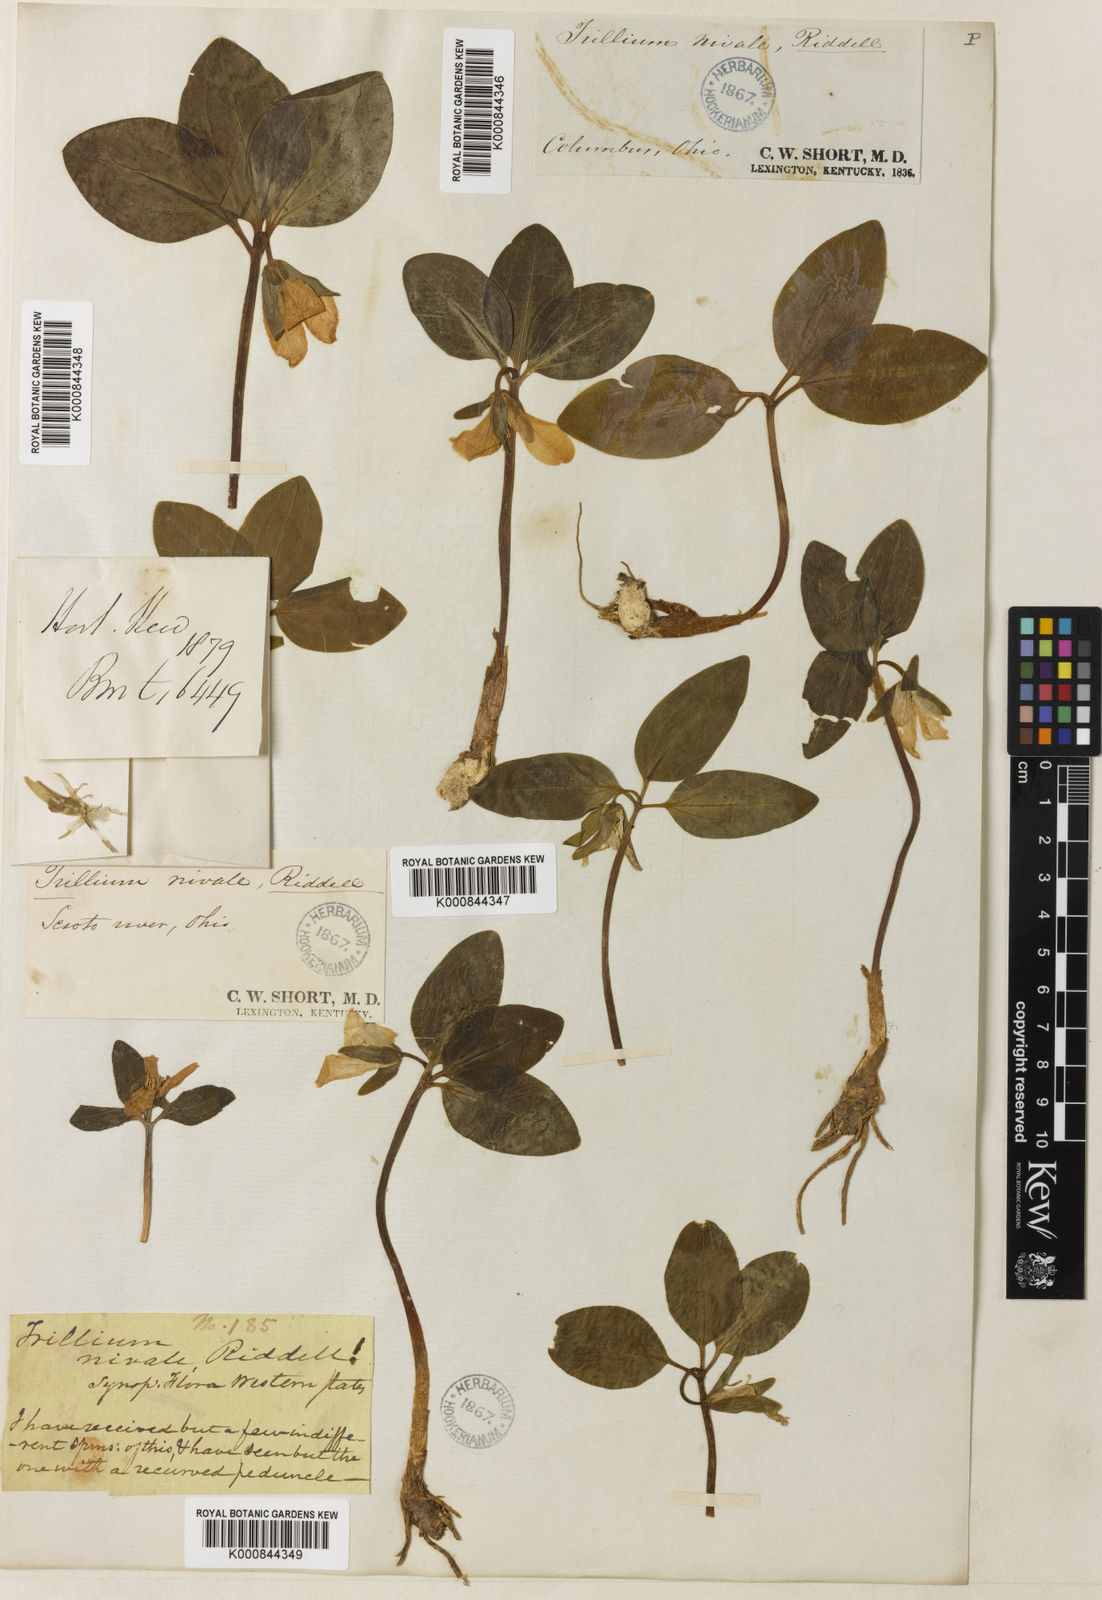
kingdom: Plantae
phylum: Tracheophyta
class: Liliopsida
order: Liliales
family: Melanthiaceae
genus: Trillium
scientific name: Trillium nivale
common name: Dwarf white trillium
